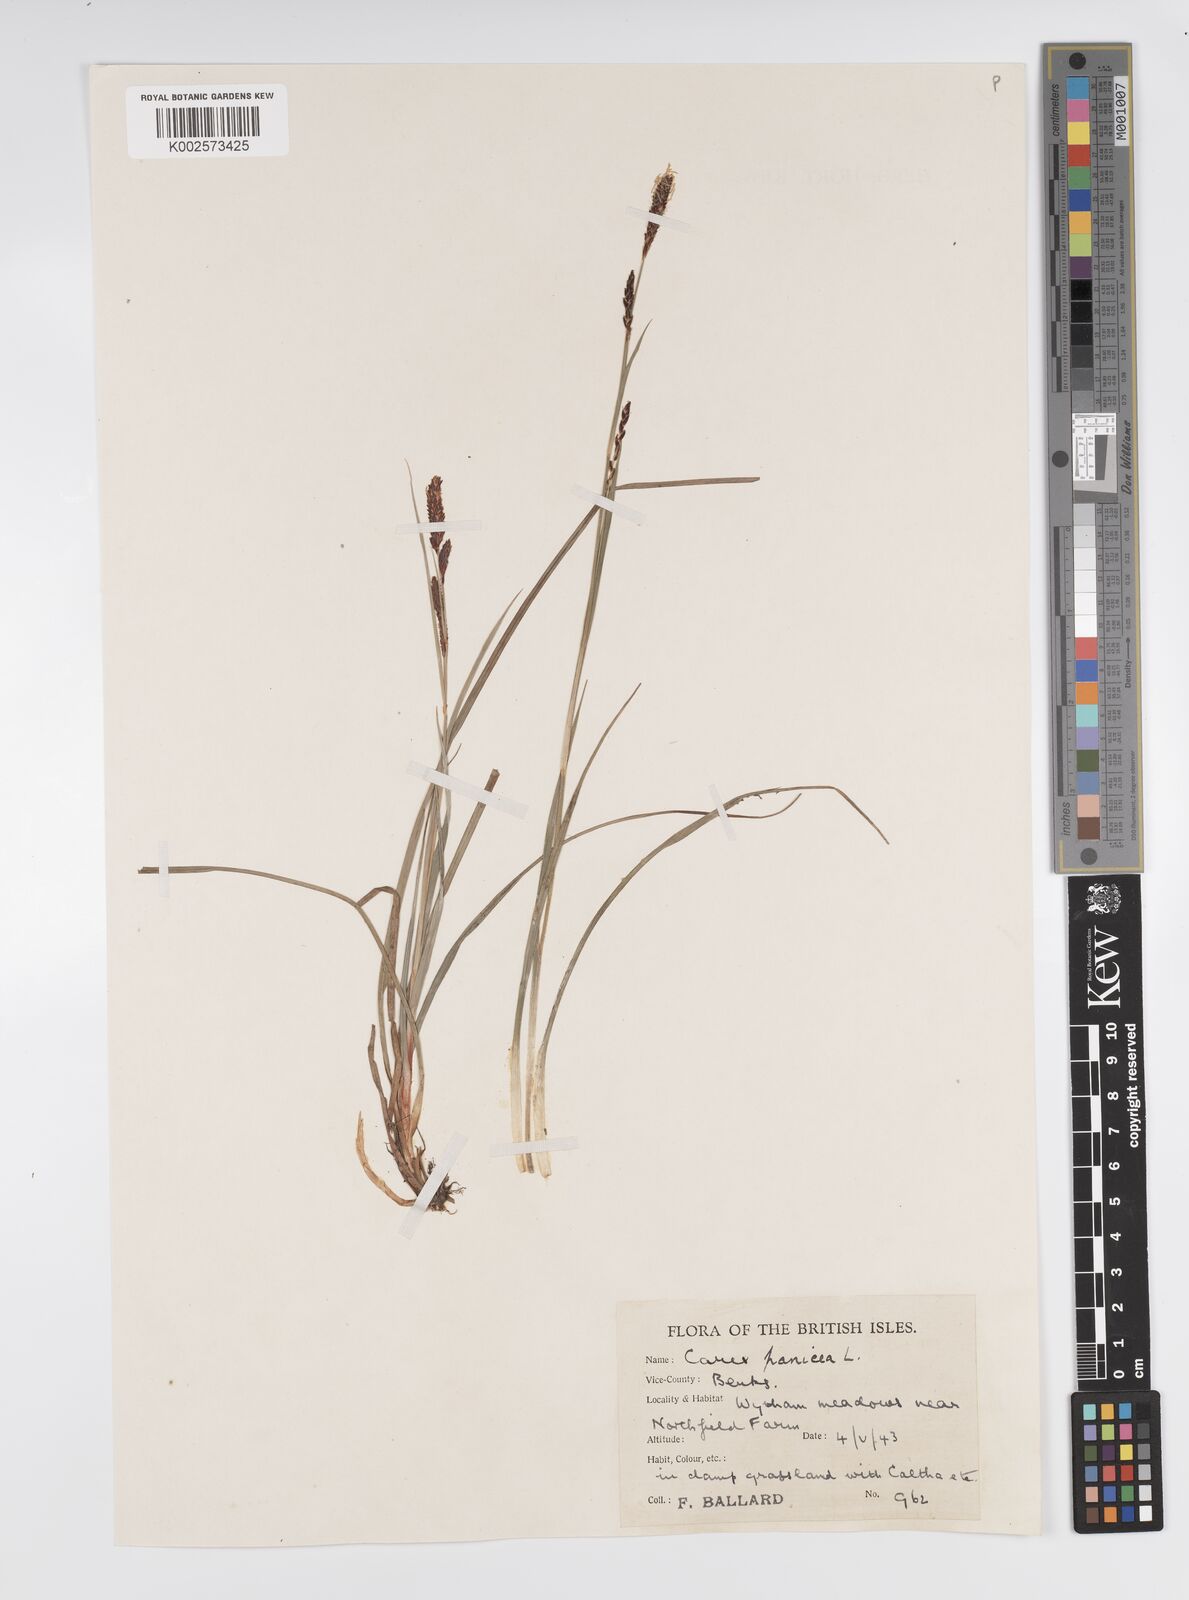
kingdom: Plantae
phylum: Tracheophyta
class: Liliopsida
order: Poales
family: Cyperaceae
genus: Carex
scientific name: Carex panicea
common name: Carnation sedge
